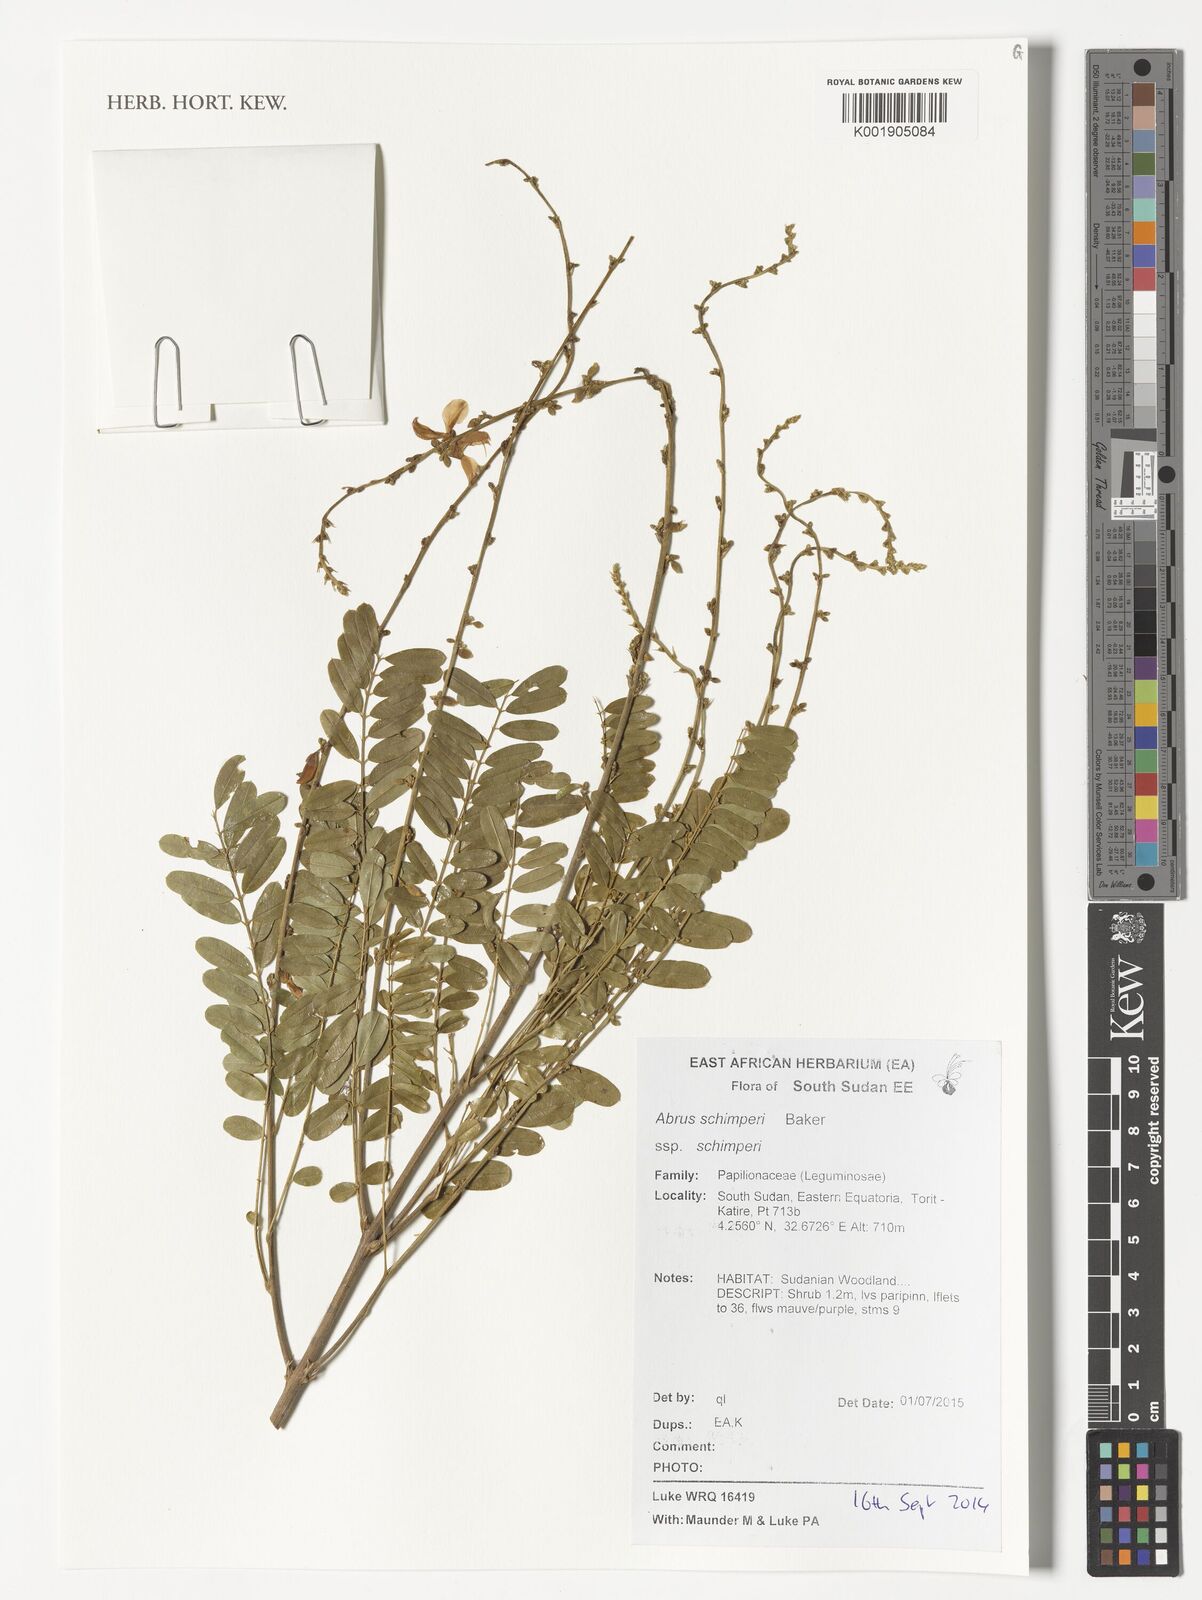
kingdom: Plantae
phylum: Tracheophyta
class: Magnoliopsida
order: Fabales
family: Fabaceae
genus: Abrus
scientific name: Abrus fruticulosus
